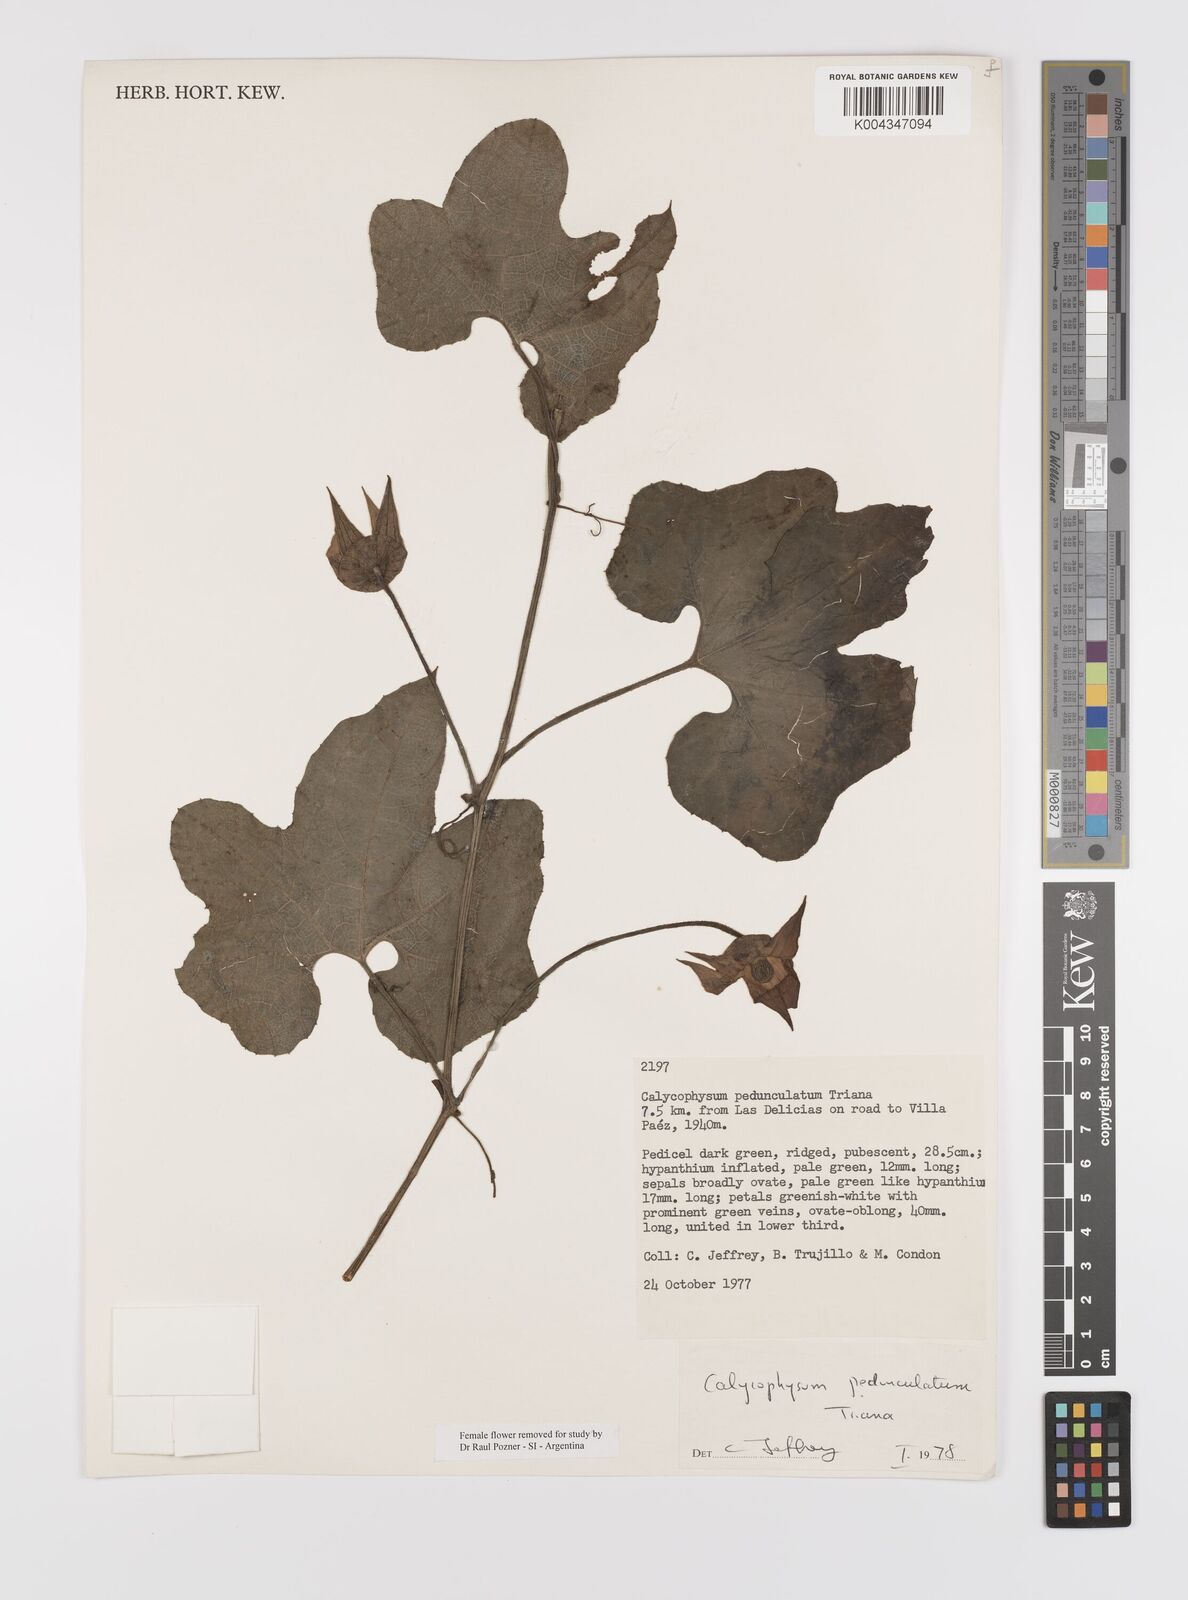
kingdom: Plantae
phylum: Tracheophyta
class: Magnoliopsida
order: Cucurbitales
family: Cucurbitaceae
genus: Calycophysum
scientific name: Calycophysum pedunculatum
